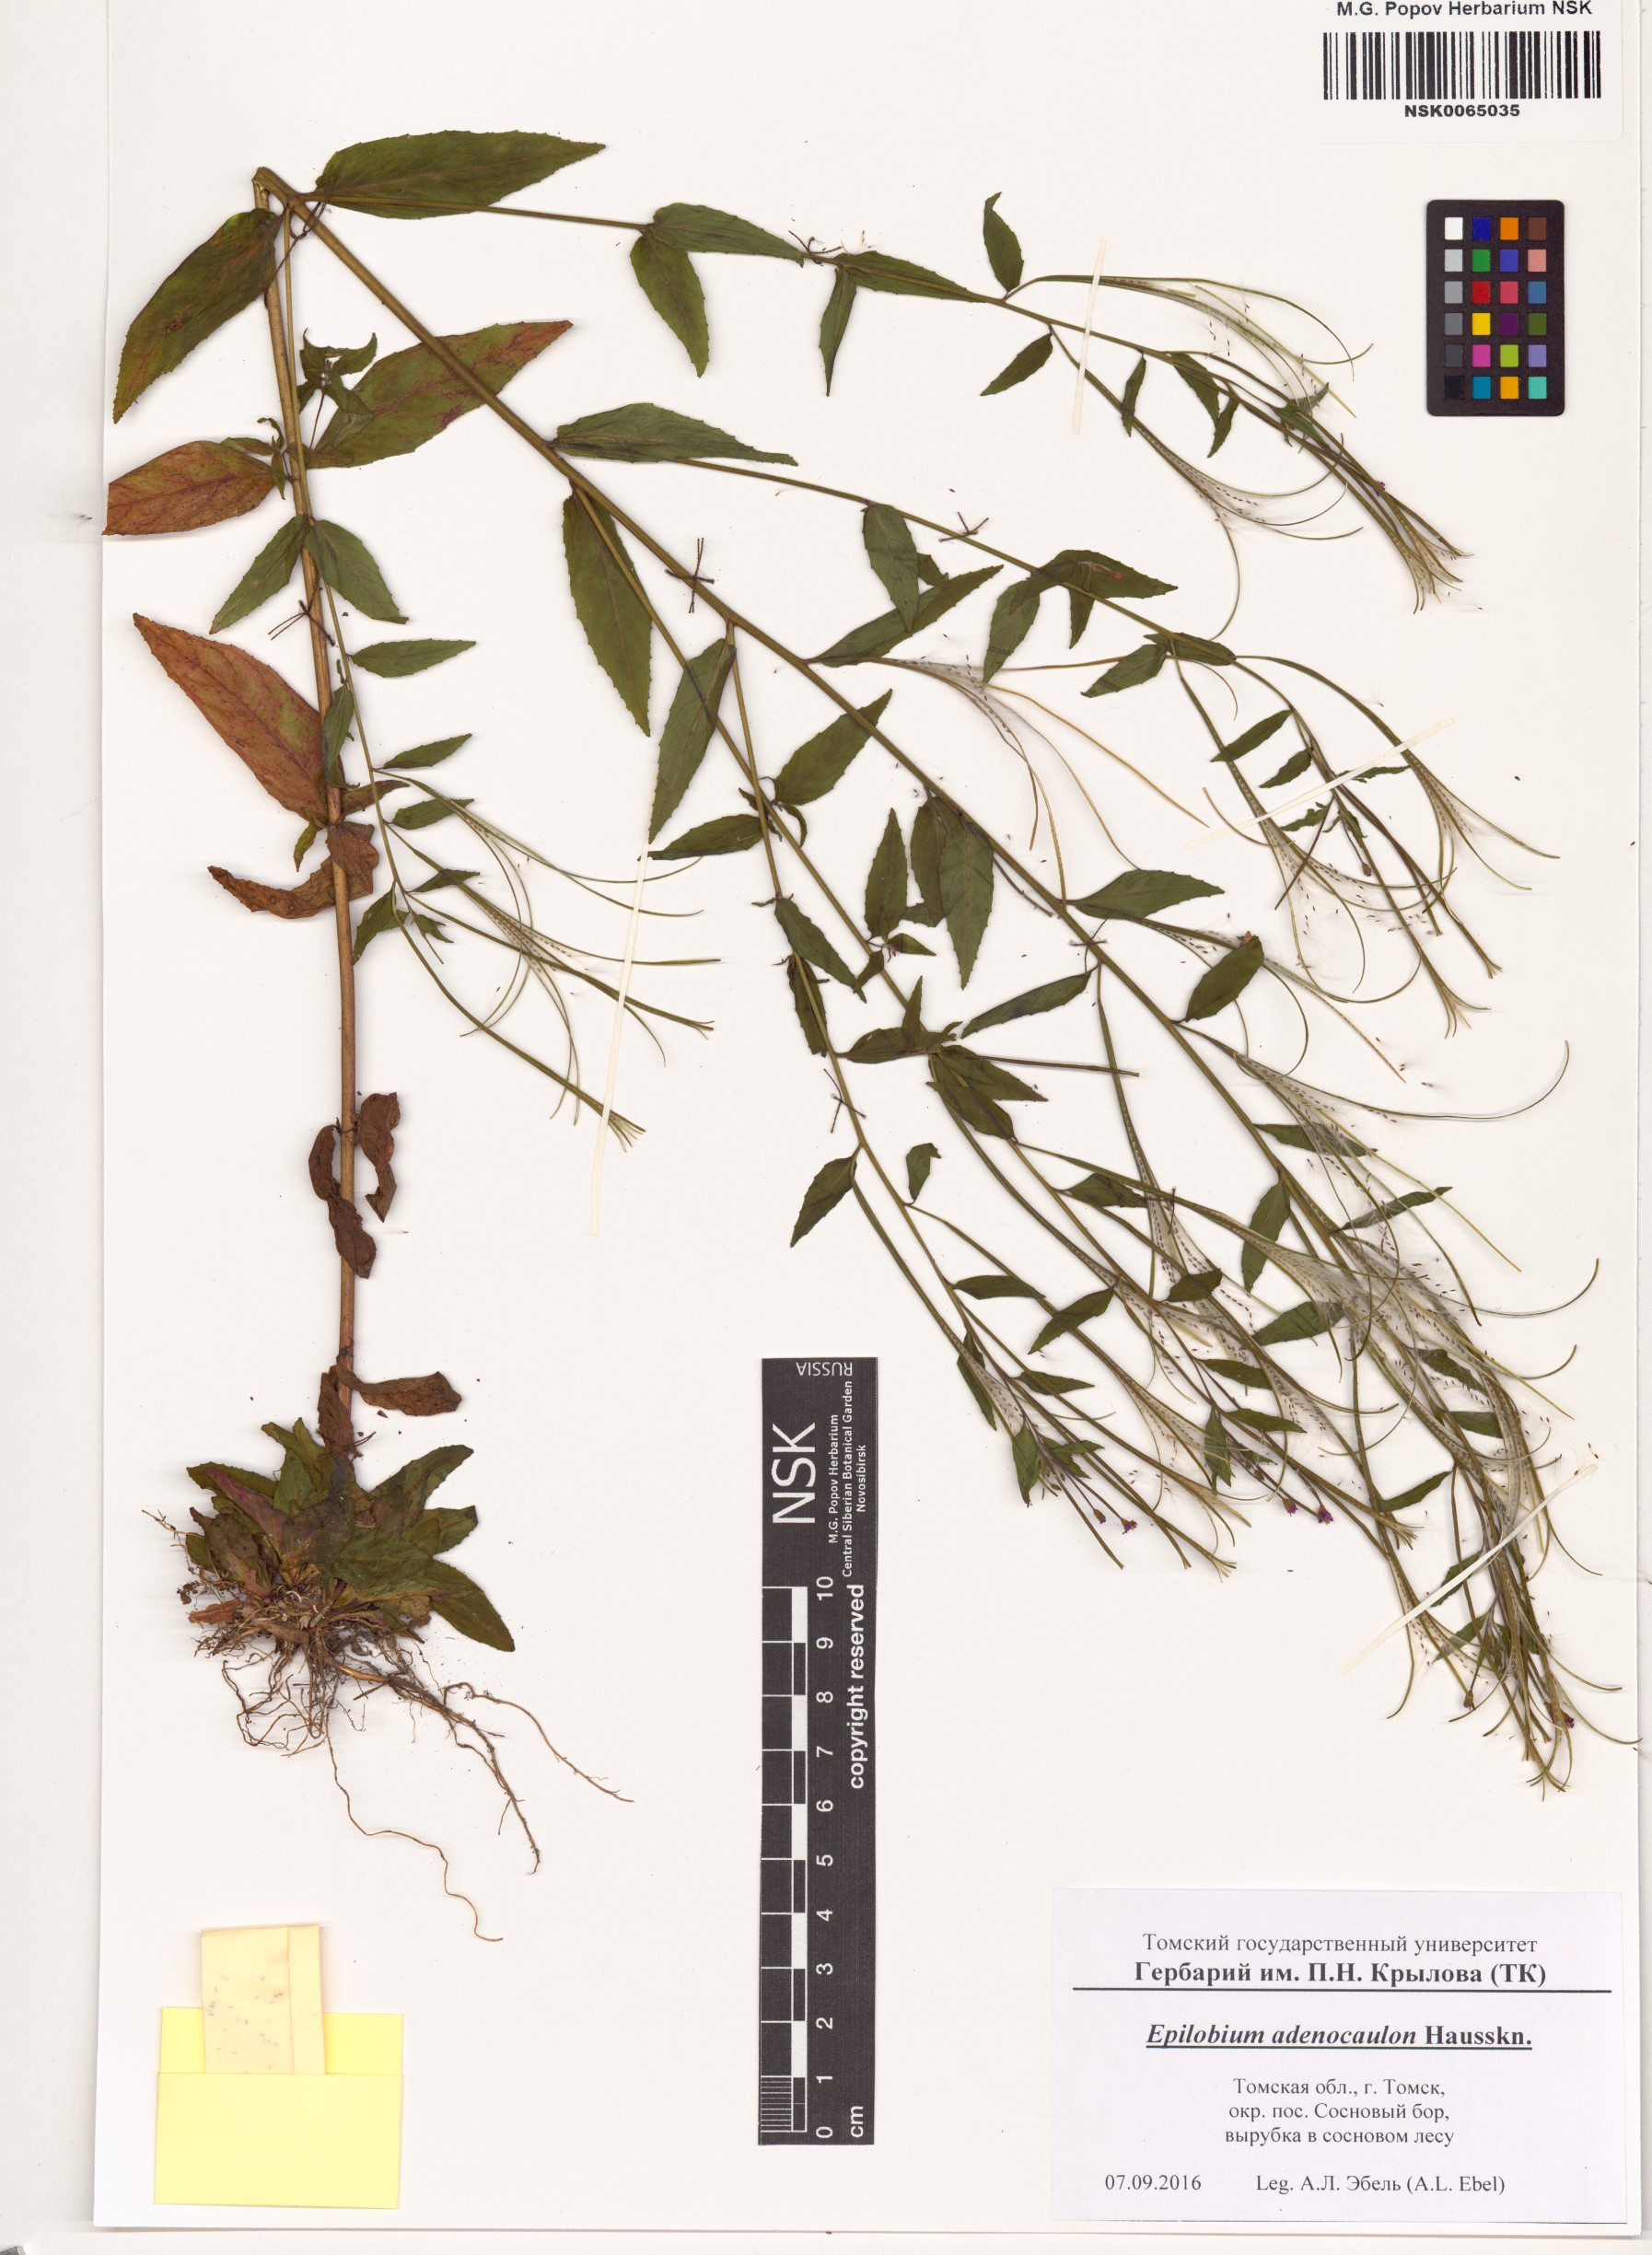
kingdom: Plantae
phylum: Tracheophyta
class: Magnoliopsida
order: Myrtales
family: Onagraceae
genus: Epilobium
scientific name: Epilobium ciliatum
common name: American willowherb
